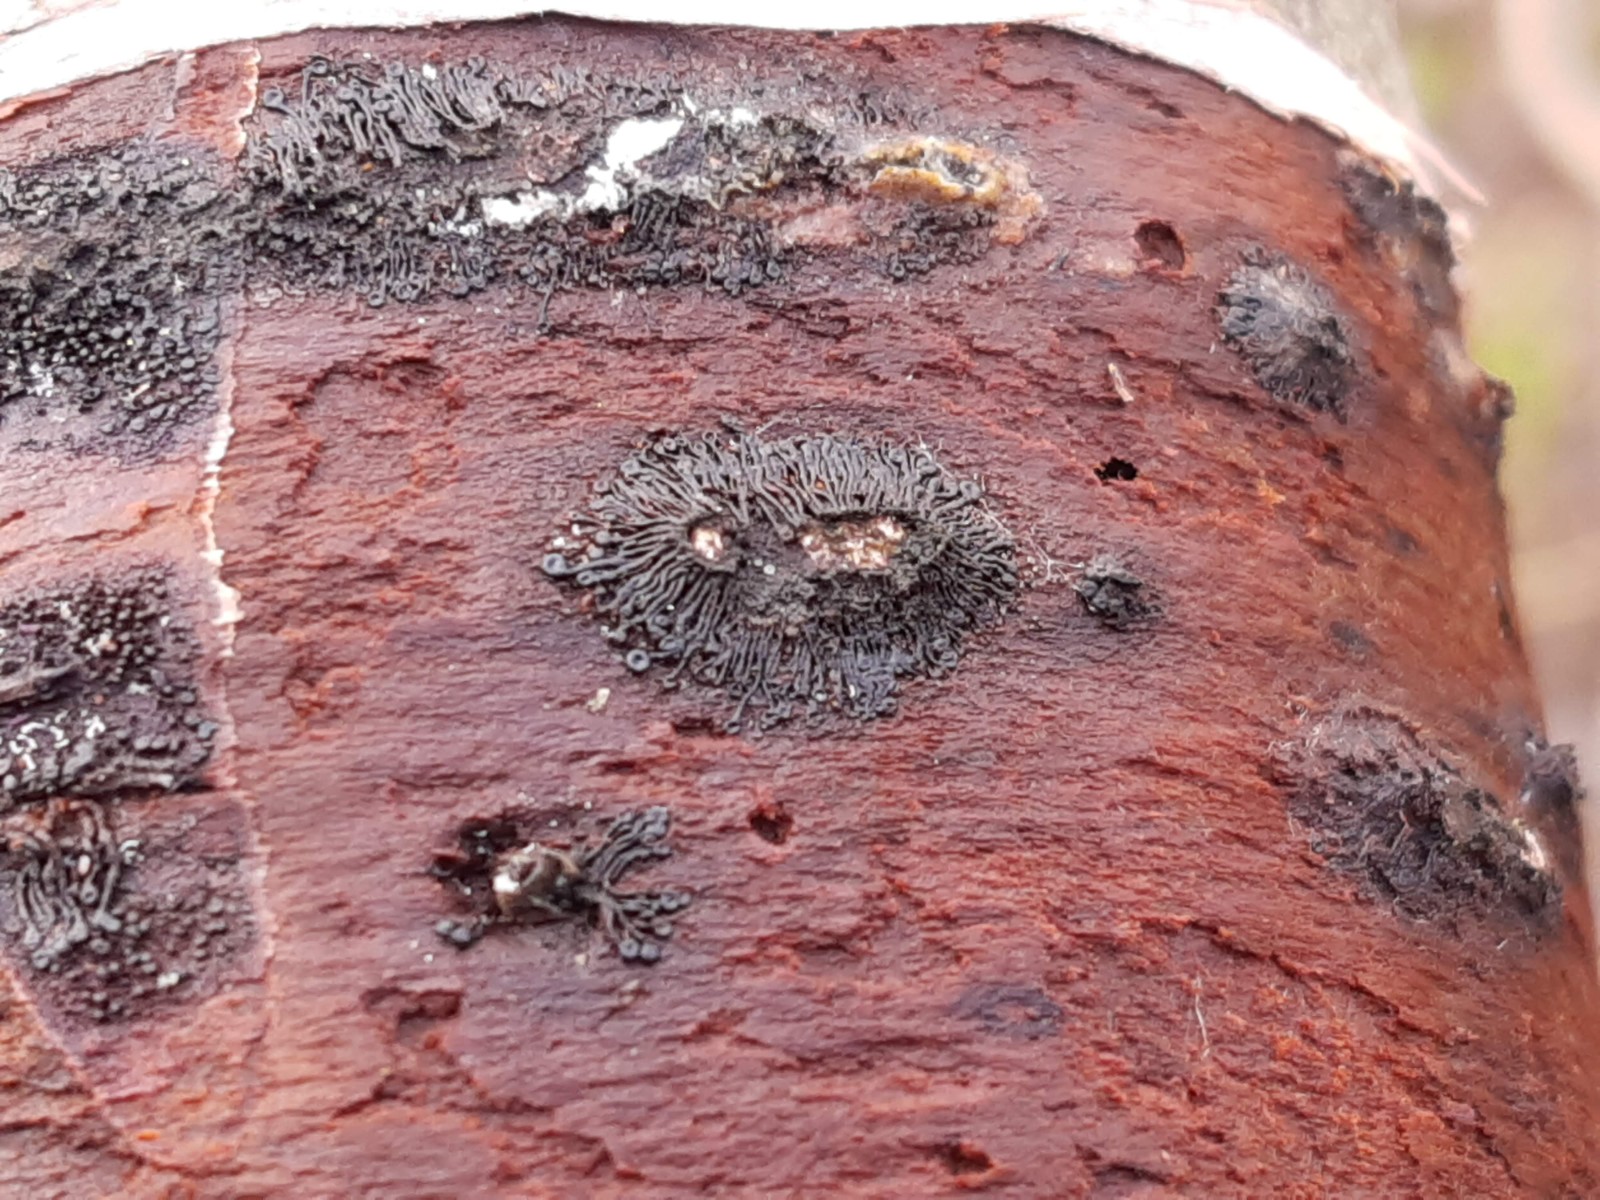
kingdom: Fungi
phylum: Ascomycota
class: Sordariomycetes
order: Calosphaeriales
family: Calosphaeriaceae
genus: Calosphaeria
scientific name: Calosphaeria pulchella
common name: smuk slyngkerne
